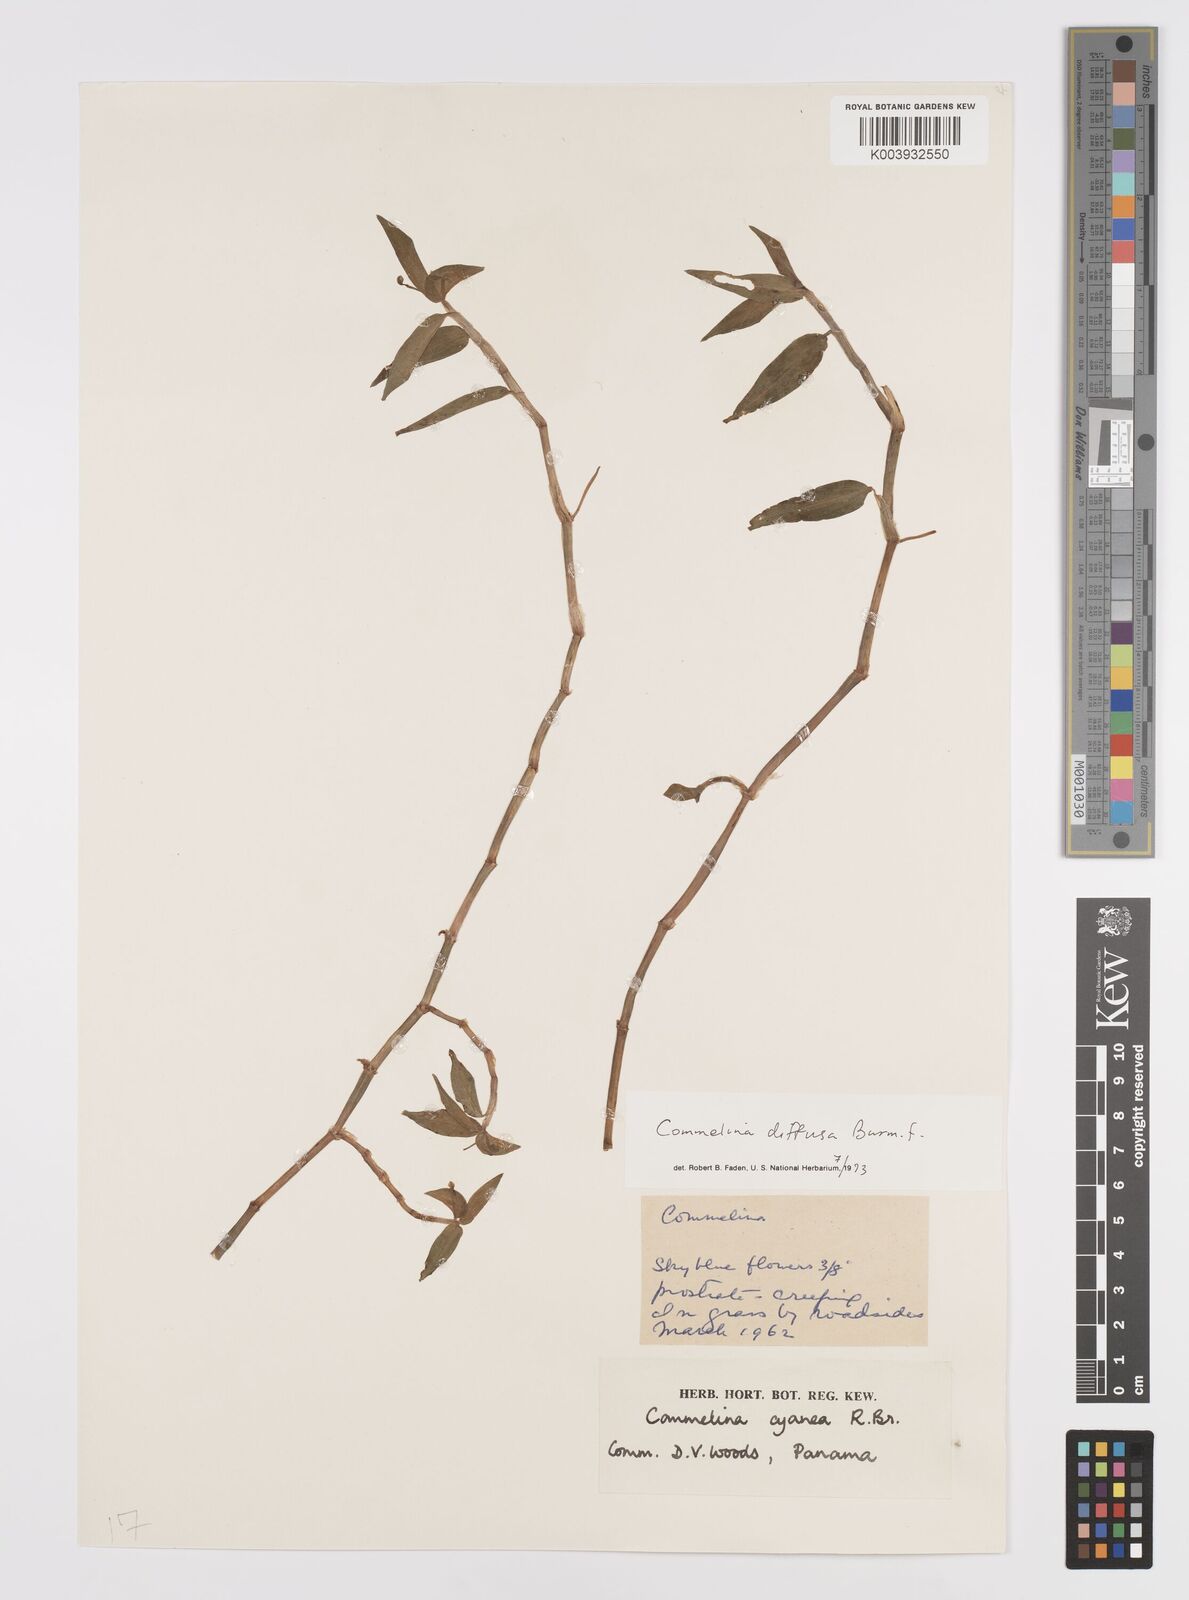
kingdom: Plantae
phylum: Tracheophyta
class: Liliopsida
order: Commelinales
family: Commelinaceae
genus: Commelina
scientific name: Commelina diffusa
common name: Climbing dayflower
